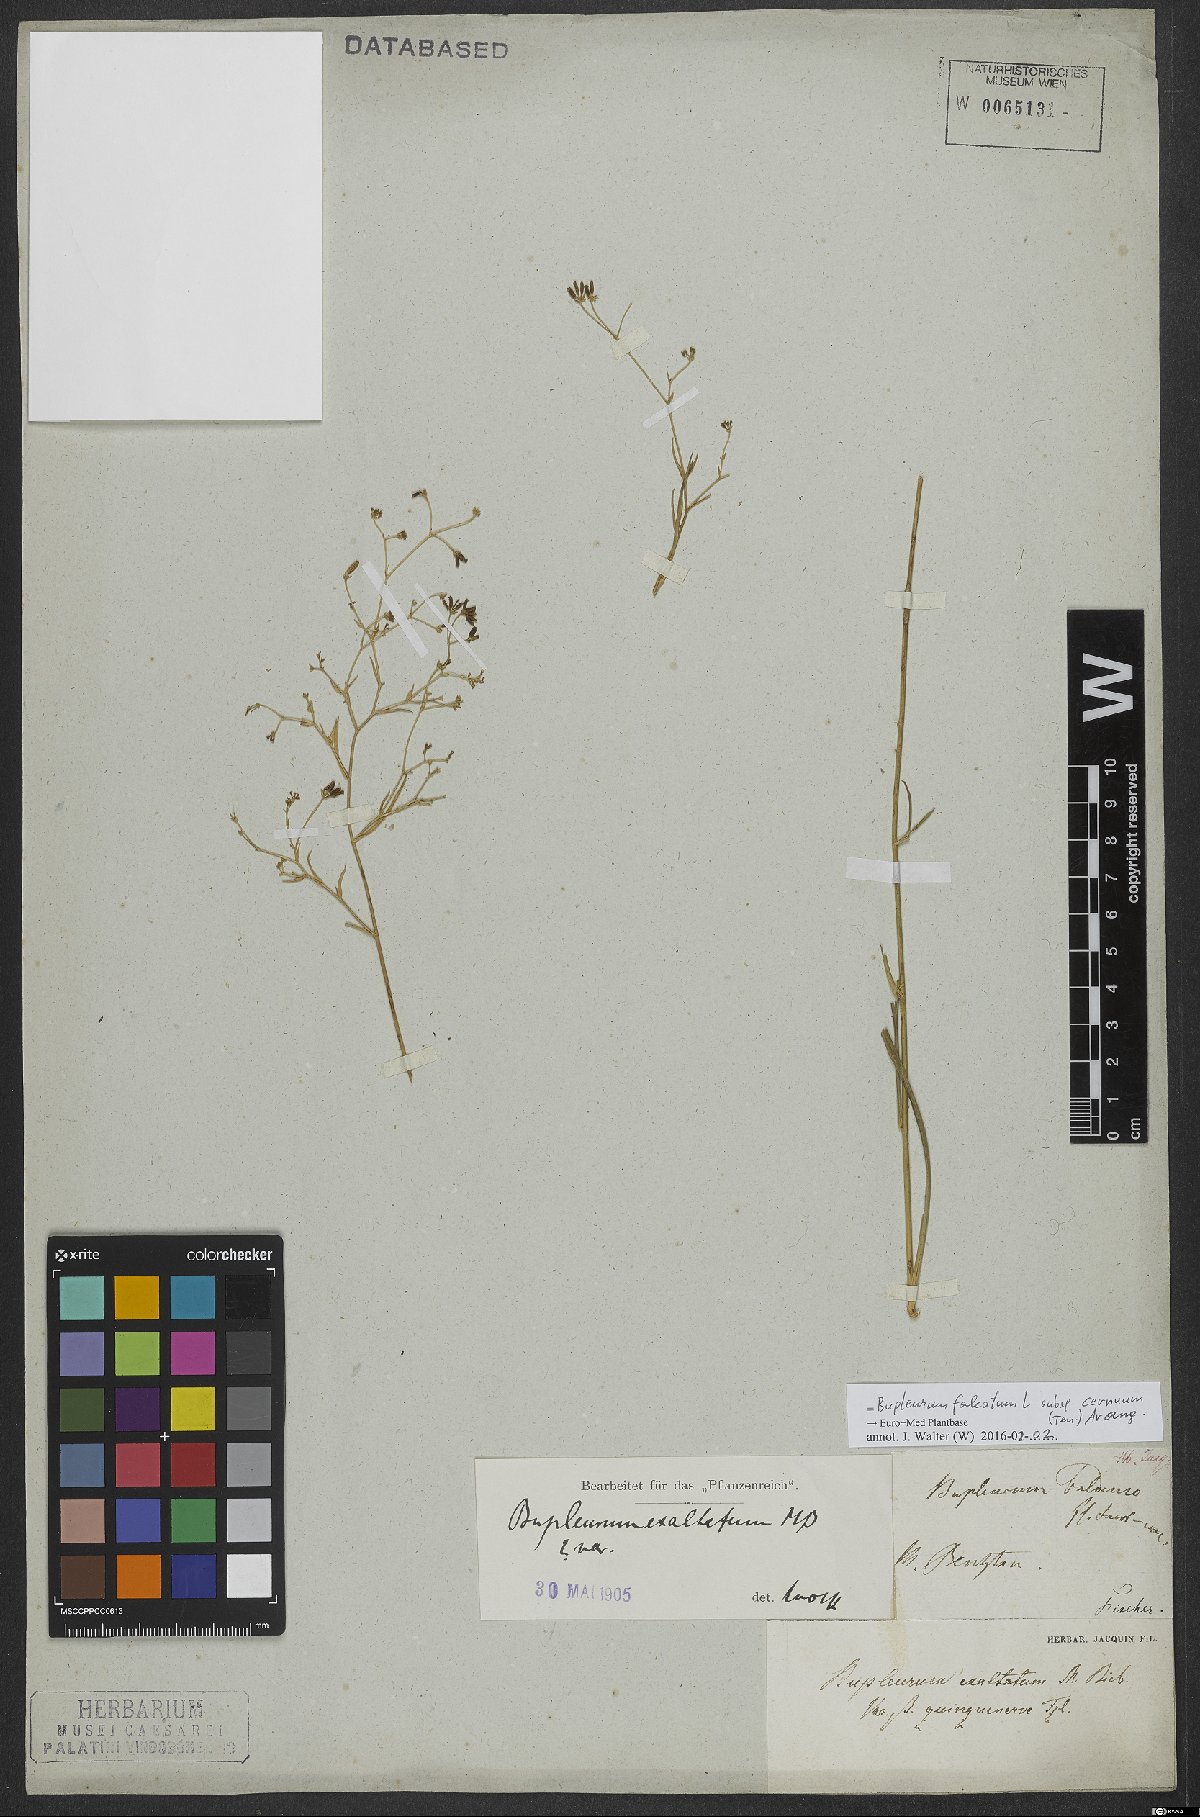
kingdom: Plantae
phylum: Tracheophyta
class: Magnoliopsida
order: Apiales
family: Apiaceae
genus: Bupleurum
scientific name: Bupleurum exaltatum
